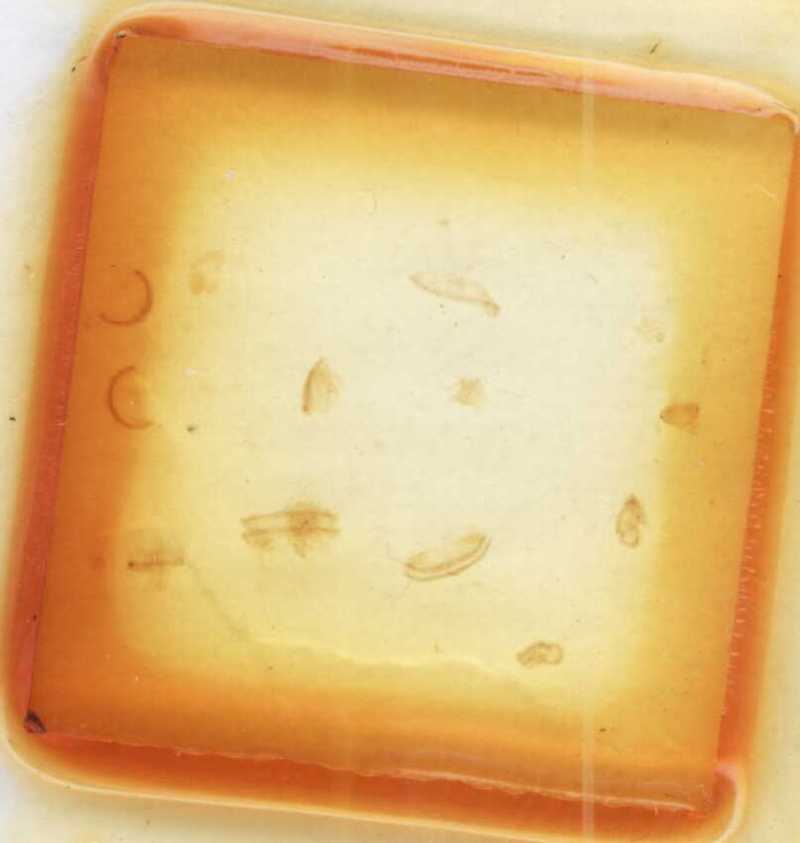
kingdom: Animalia
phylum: Arthropoda
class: Diplopoda
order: Glomerida
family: Glomeridae
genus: Trachysphaera
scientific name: Trachysphaera costata
